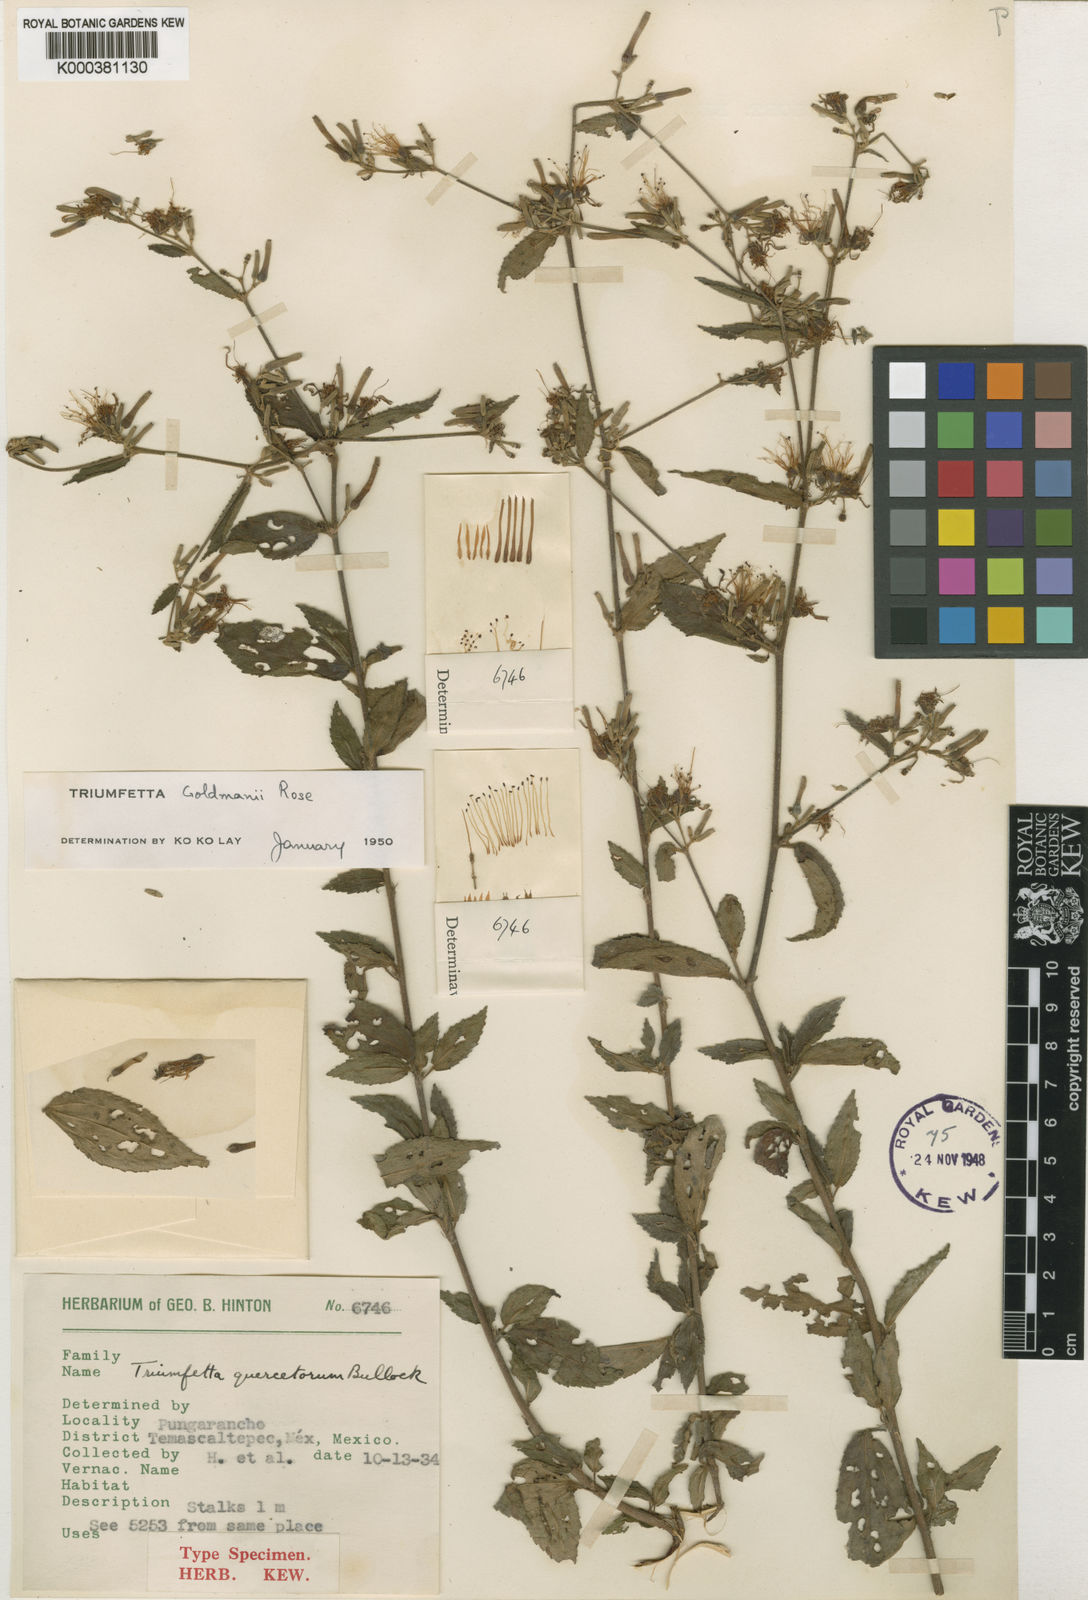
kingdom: Plantae
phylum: Tracheophyta
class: Magnoliopsida
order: Malvales
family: Malvaceae
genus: Triumfetta
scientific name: Triumfetta goldmanii
